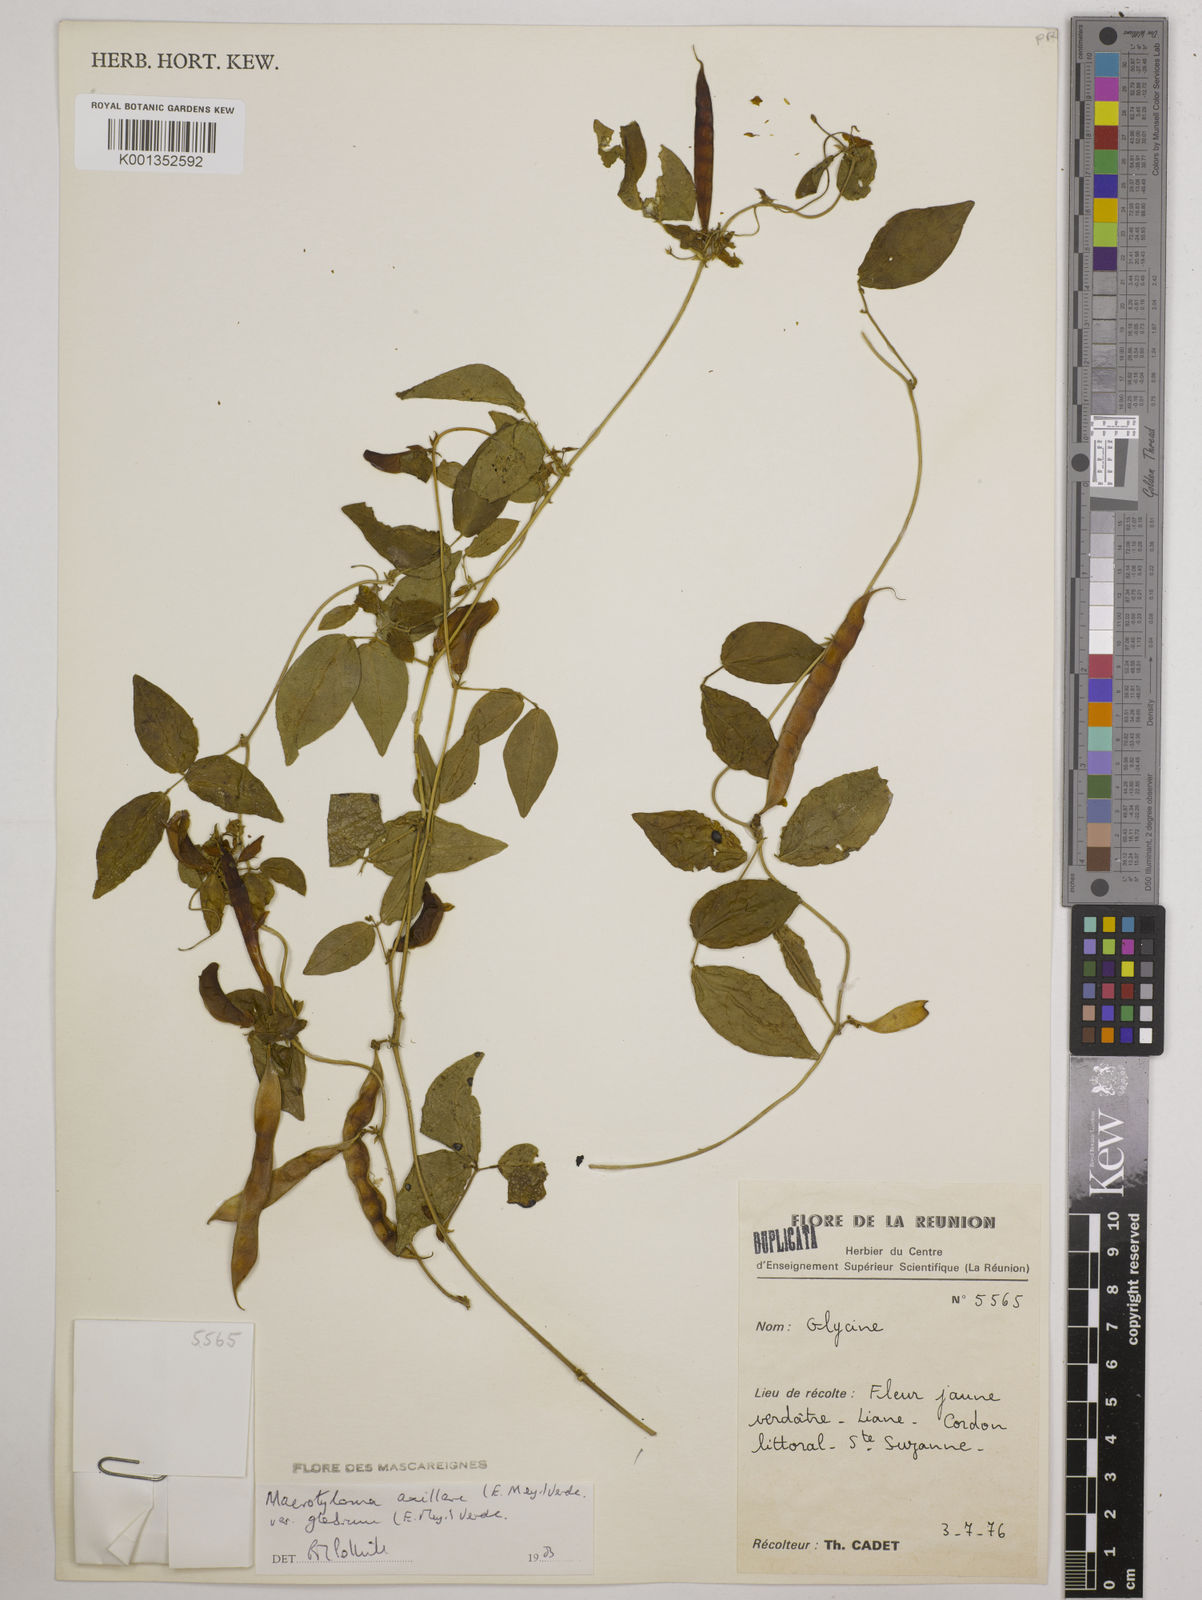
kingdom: Plantae
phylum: Tracheophyta
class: Magnoliopsida
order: Fabales
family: Fabaceae
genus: Macrotyloma
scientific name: Macrotyloma
